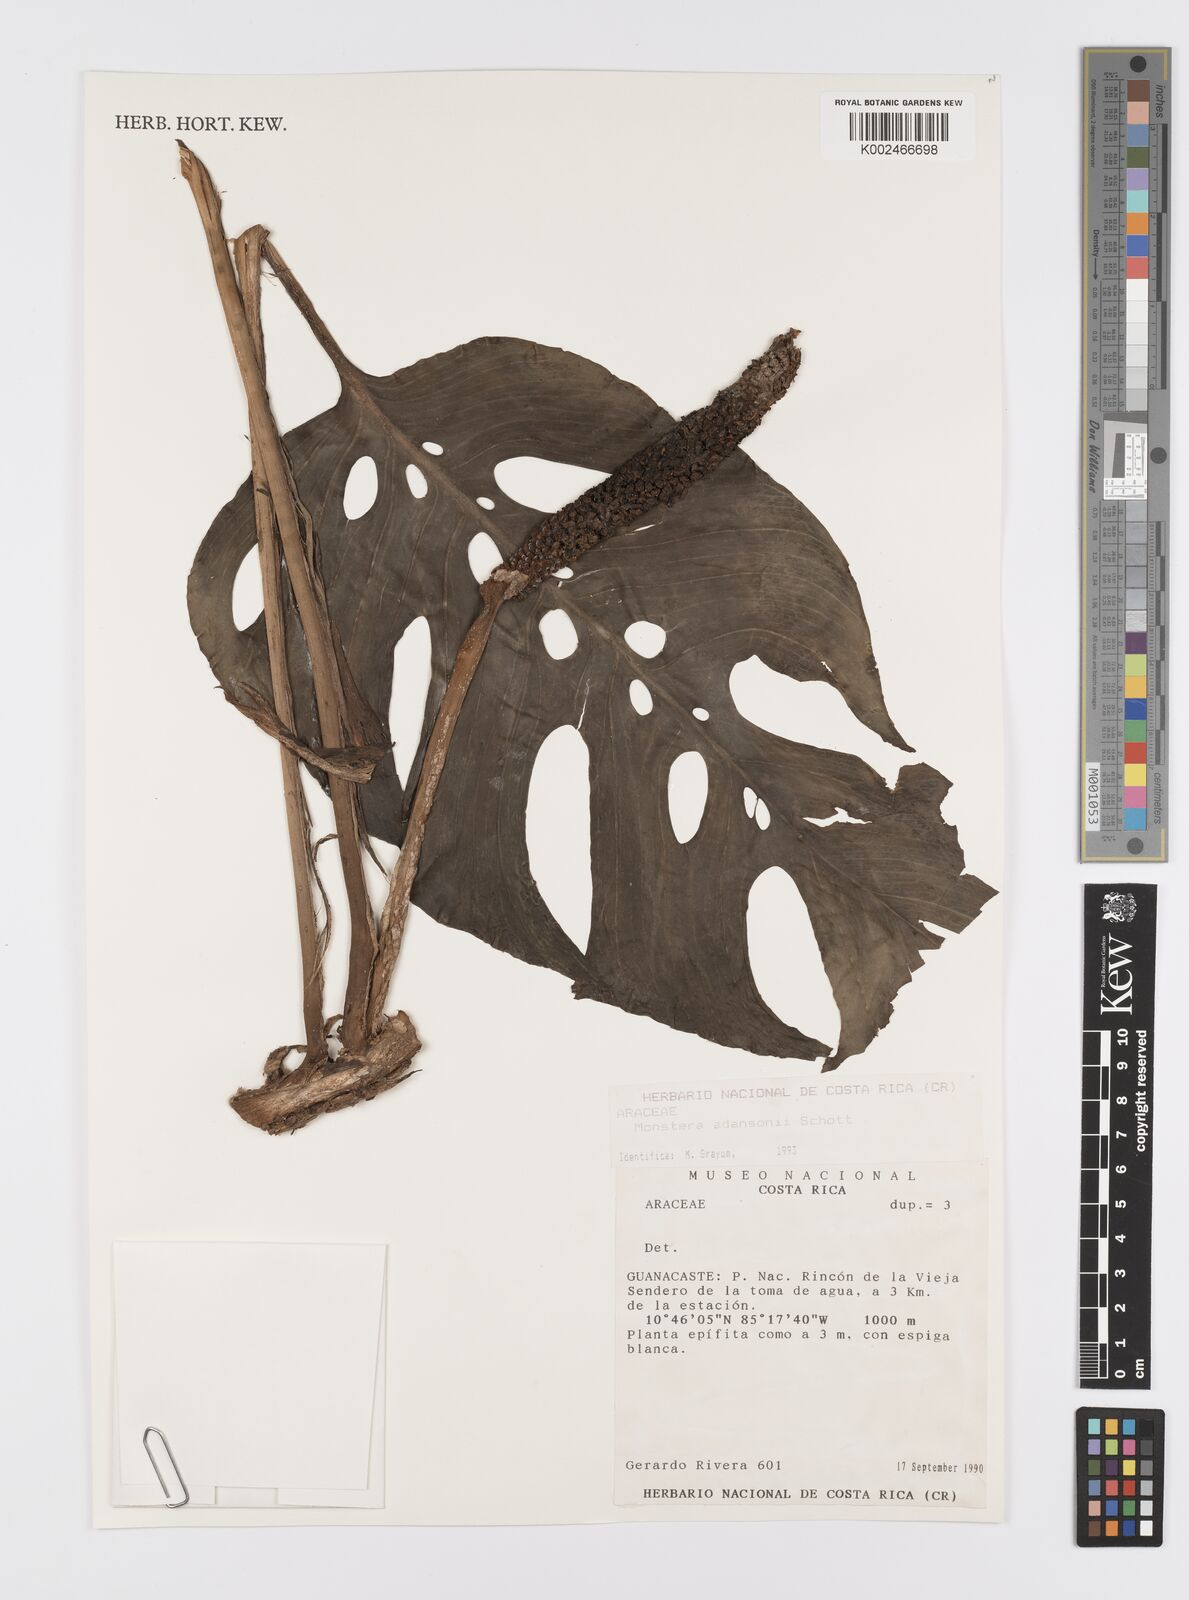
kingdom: Plantae
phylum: Tracheophyta
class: Liliopsida
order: Alismatales
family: Araceae
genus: Monstera
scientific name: Monstera adansonii
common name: Tarovine
